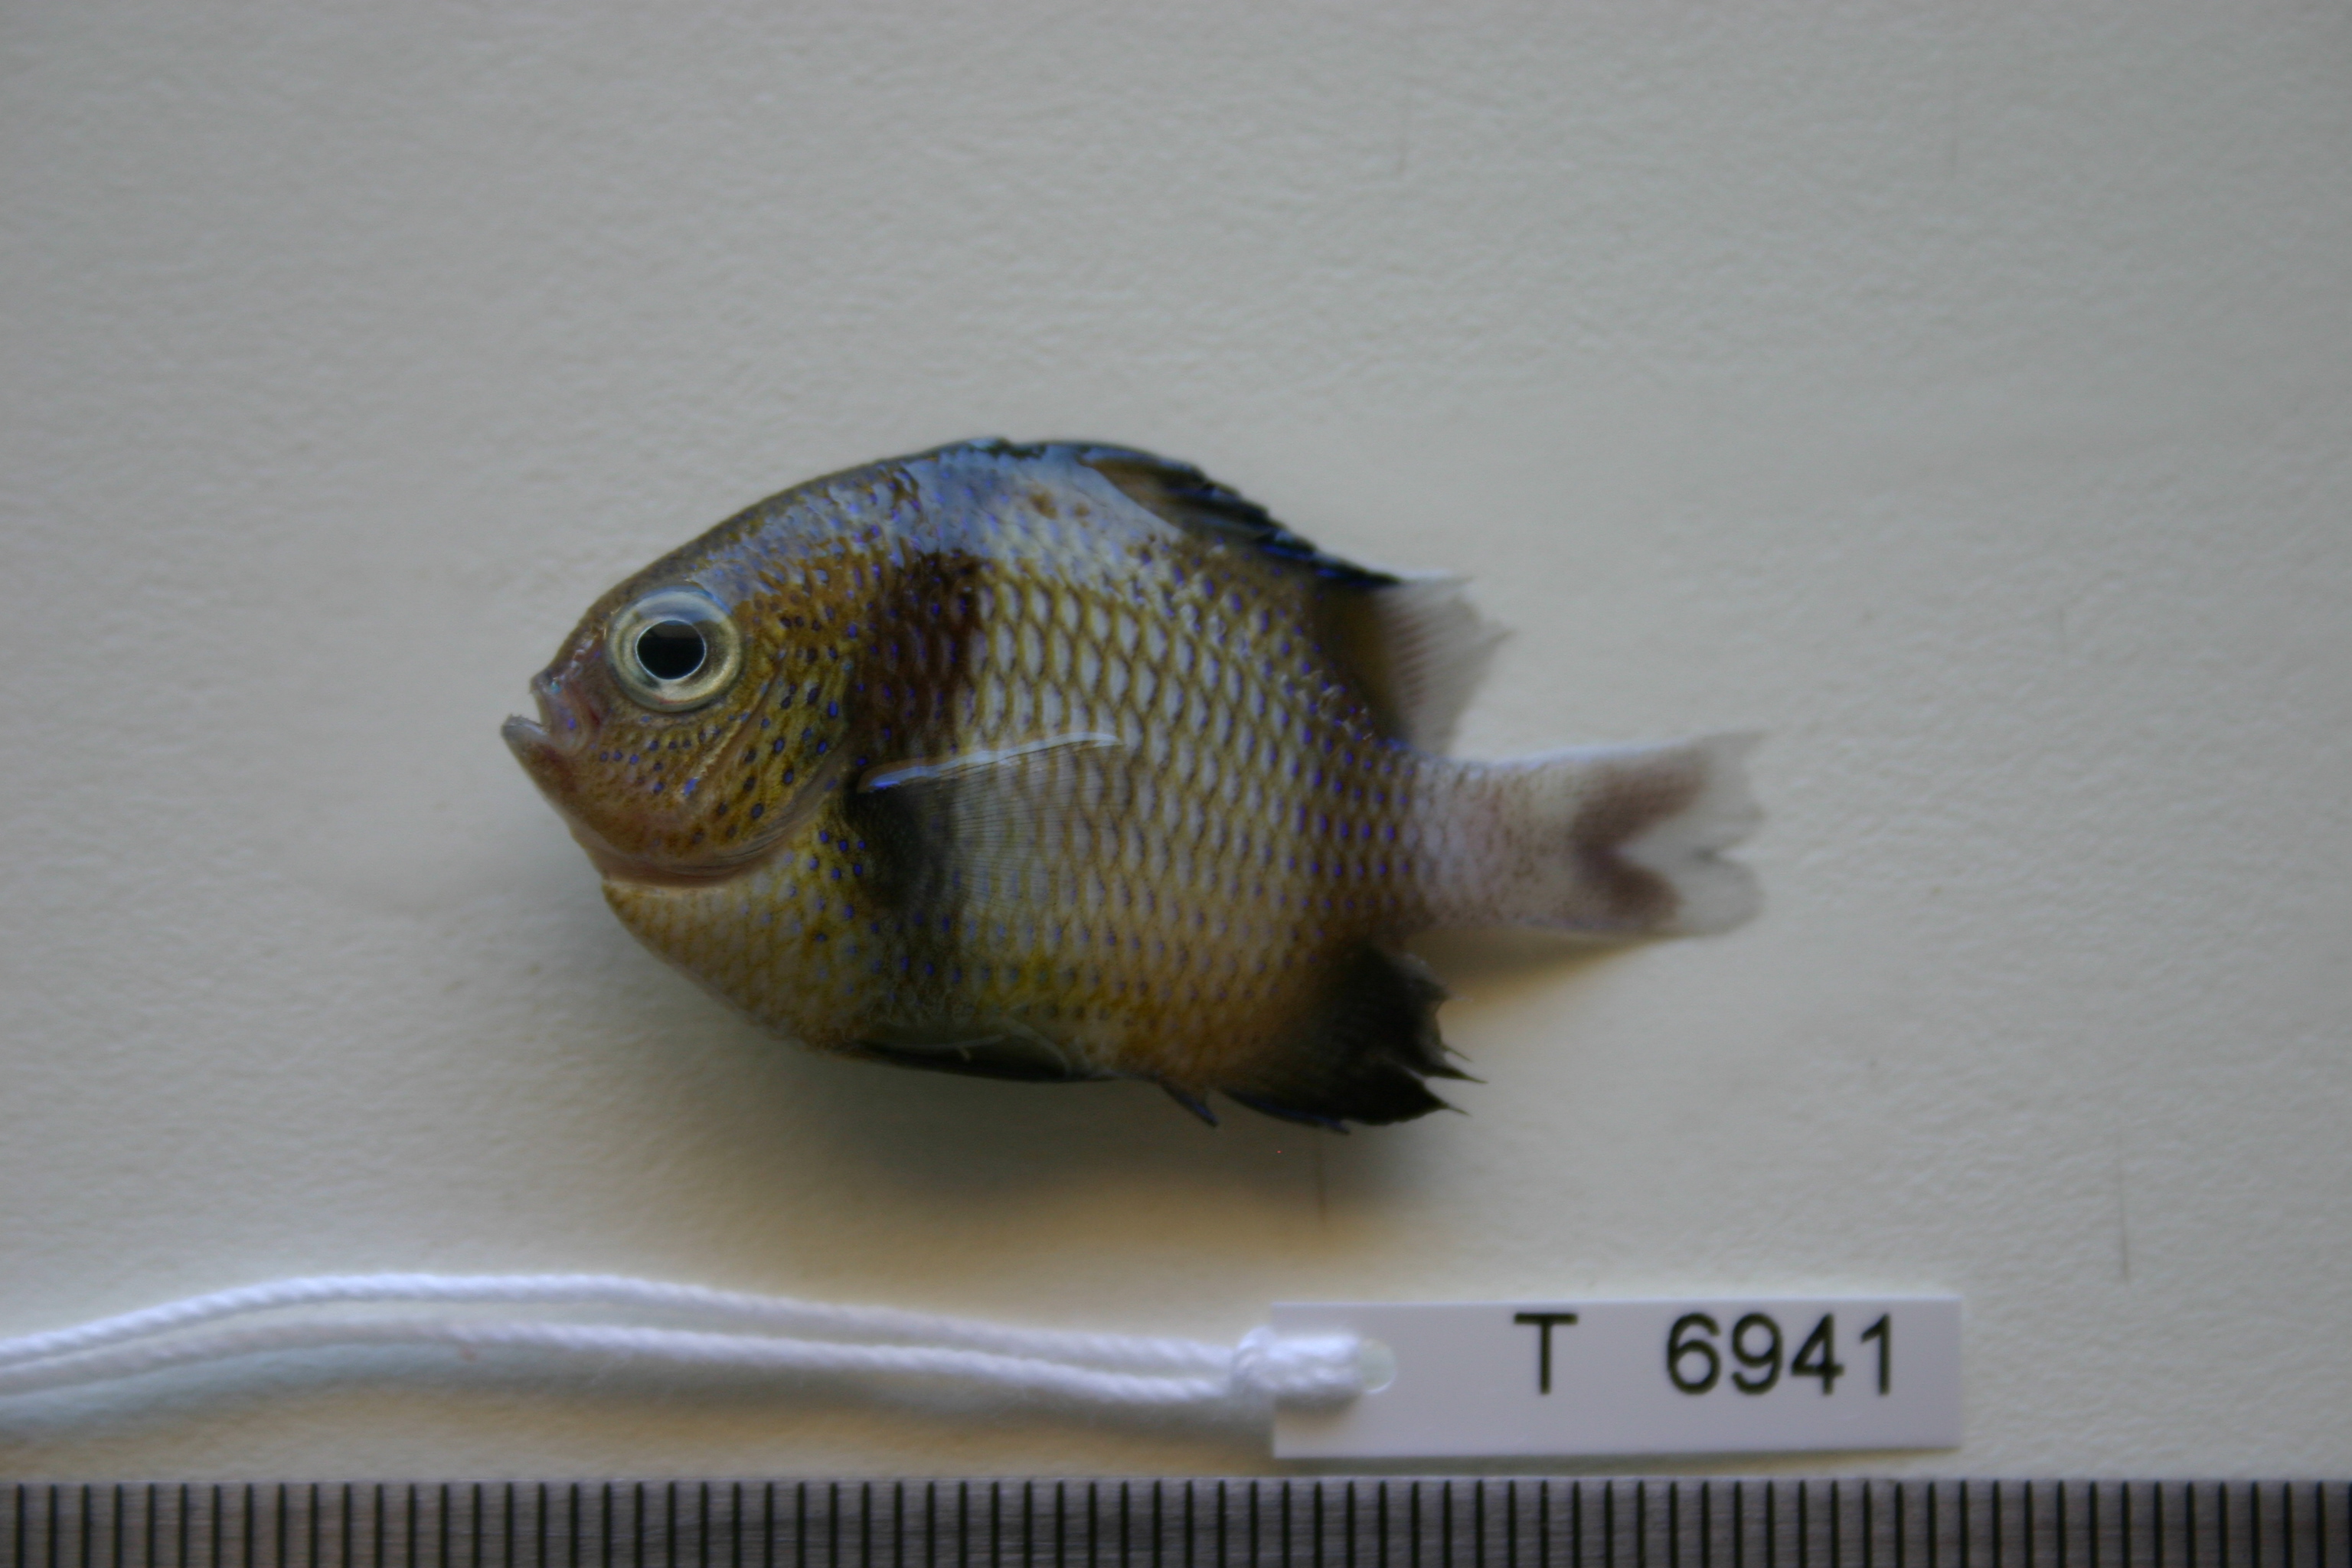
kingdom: Animalia
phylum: Chordata
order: Perciformes
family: Pomacentridae
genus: Dascyllus
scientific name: Dascyllus carneus
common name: Indian dascyllus
